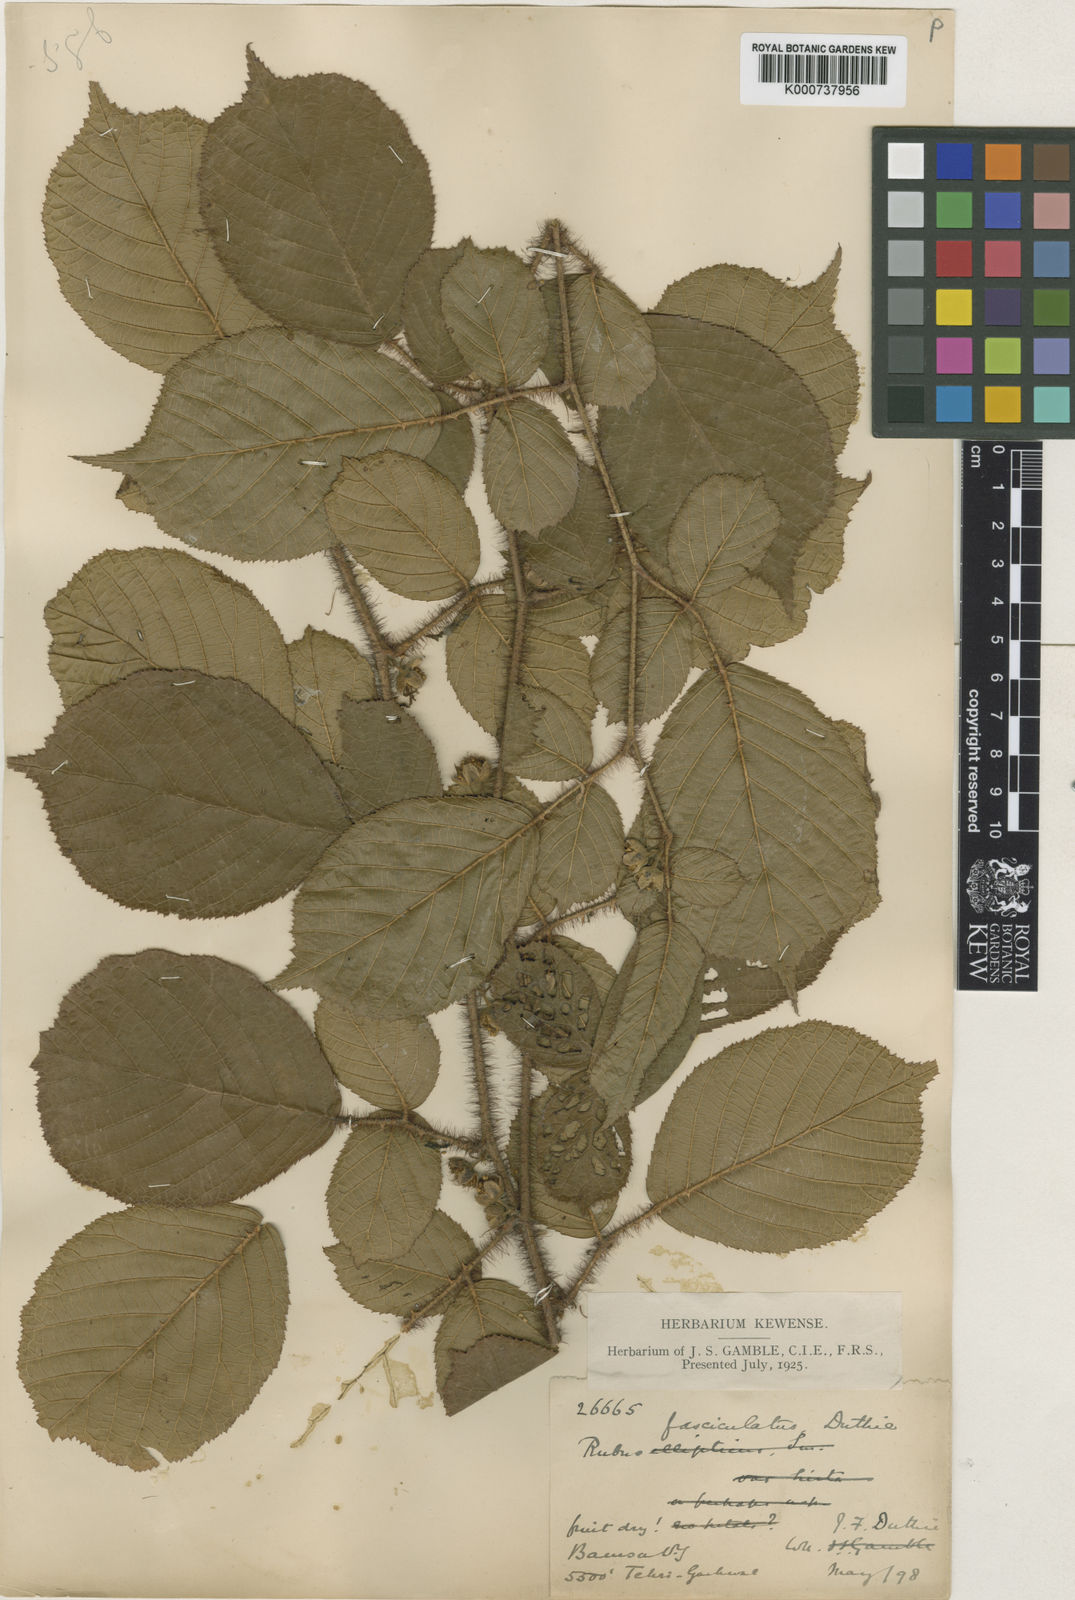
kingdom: Plantae
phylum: Tracheophyta
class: Magnoliopsida
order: Rosales
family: Rosaceae
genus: Rubus
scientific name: Rubus ellipticus
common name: Cheeseberry
